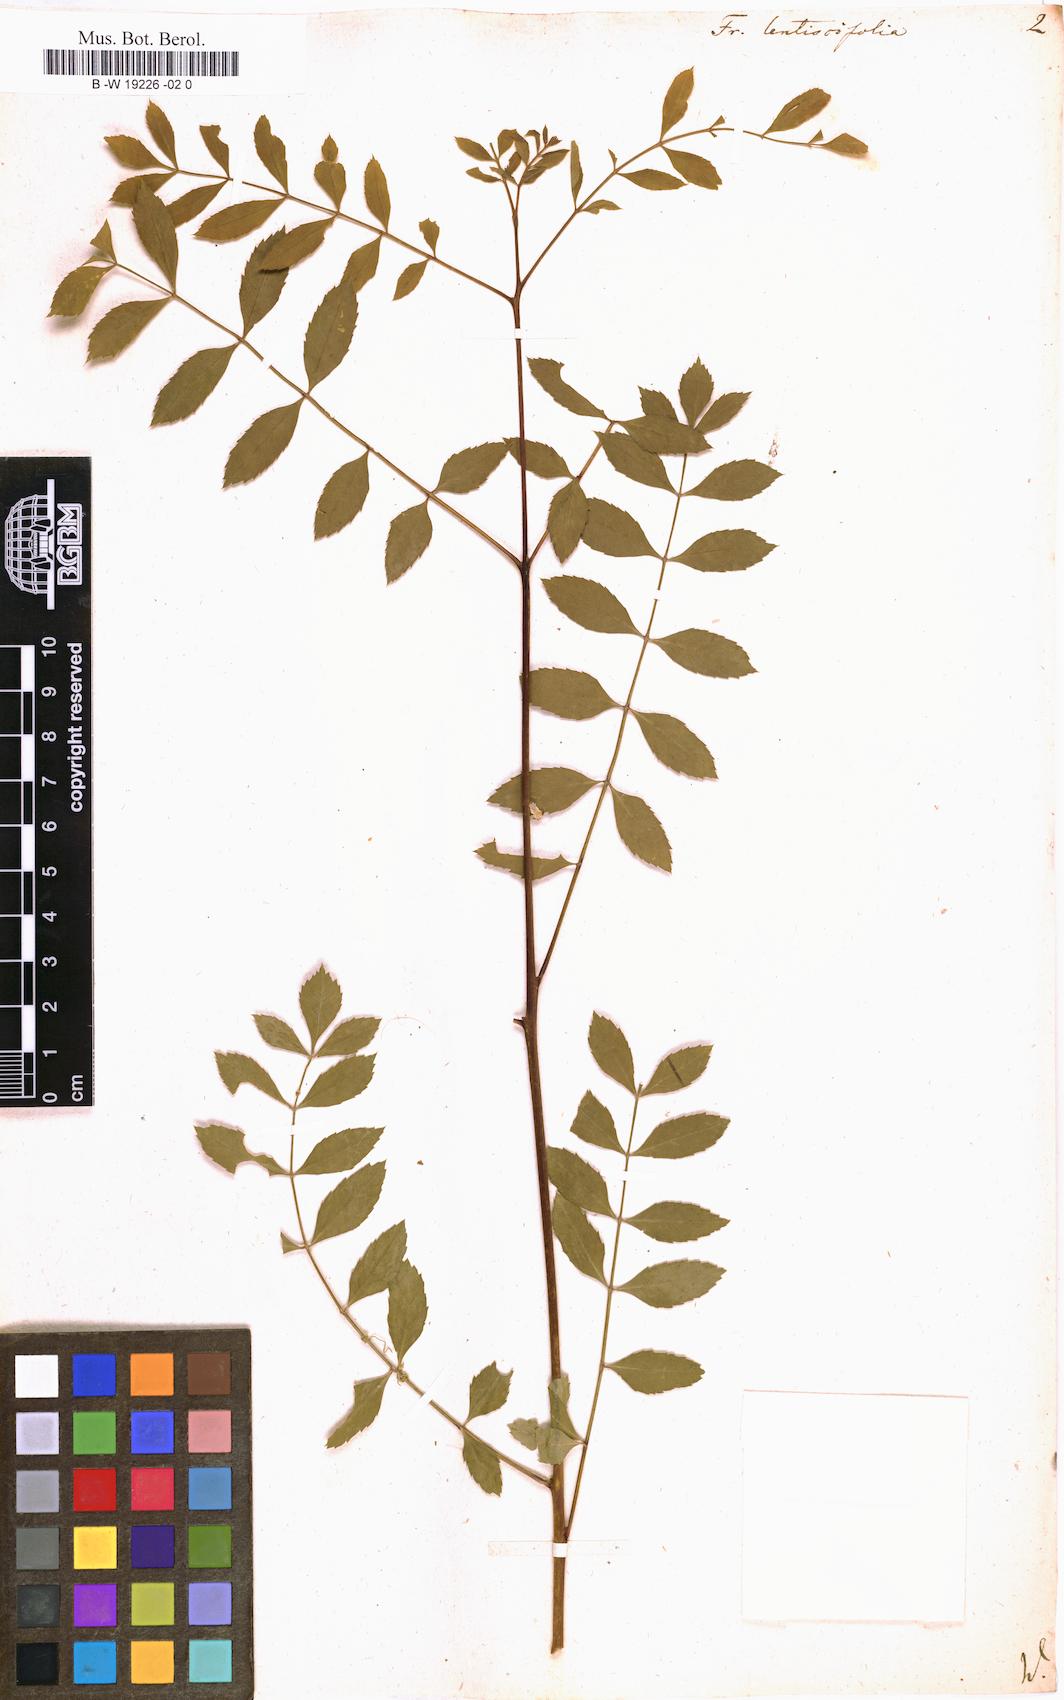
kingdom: Plantae
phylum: Tracheophyta
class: Magnoliopsida
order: Lamiales
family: Oleaceae
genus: Fraxinus
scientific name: Fraxinus angustifolia
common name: Narrow-leafed ash
